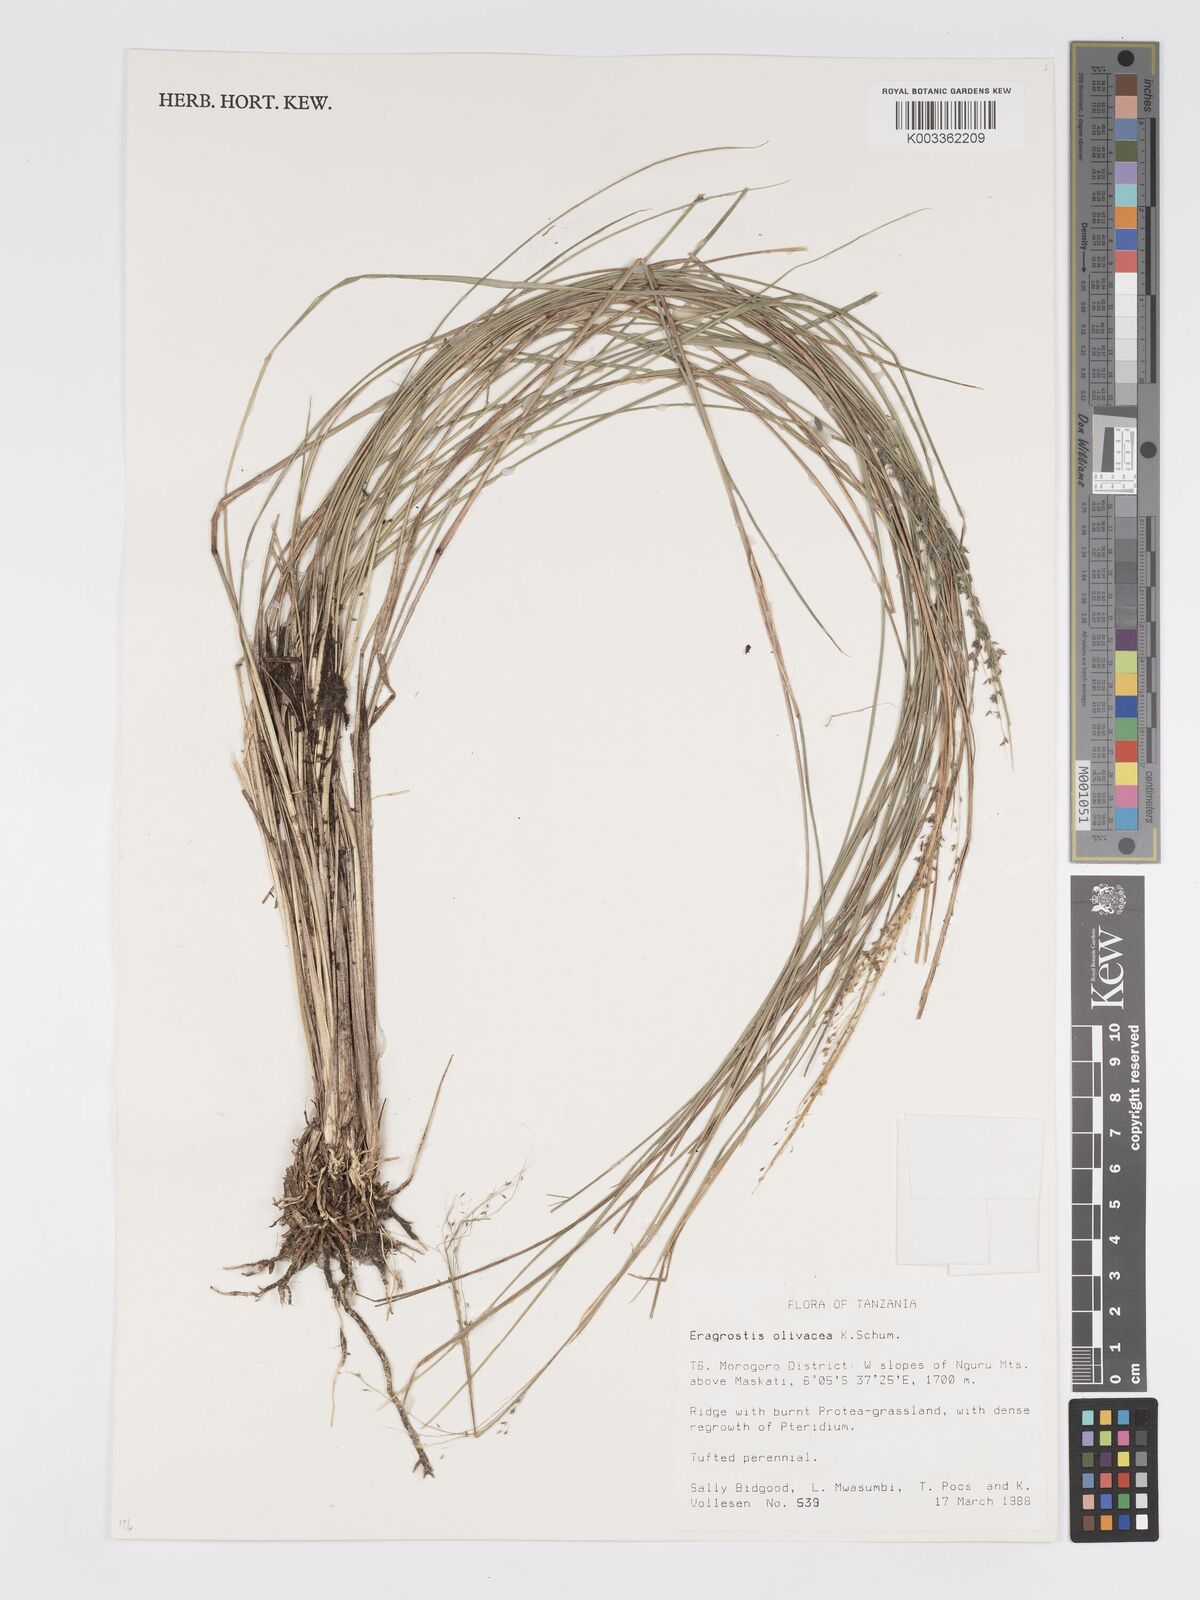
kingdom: Plantae
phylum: Tracheophyta
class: Liliopsida
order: Poales
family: Poaceae
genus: Eragrostis
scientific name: Eragrostis olivacea
